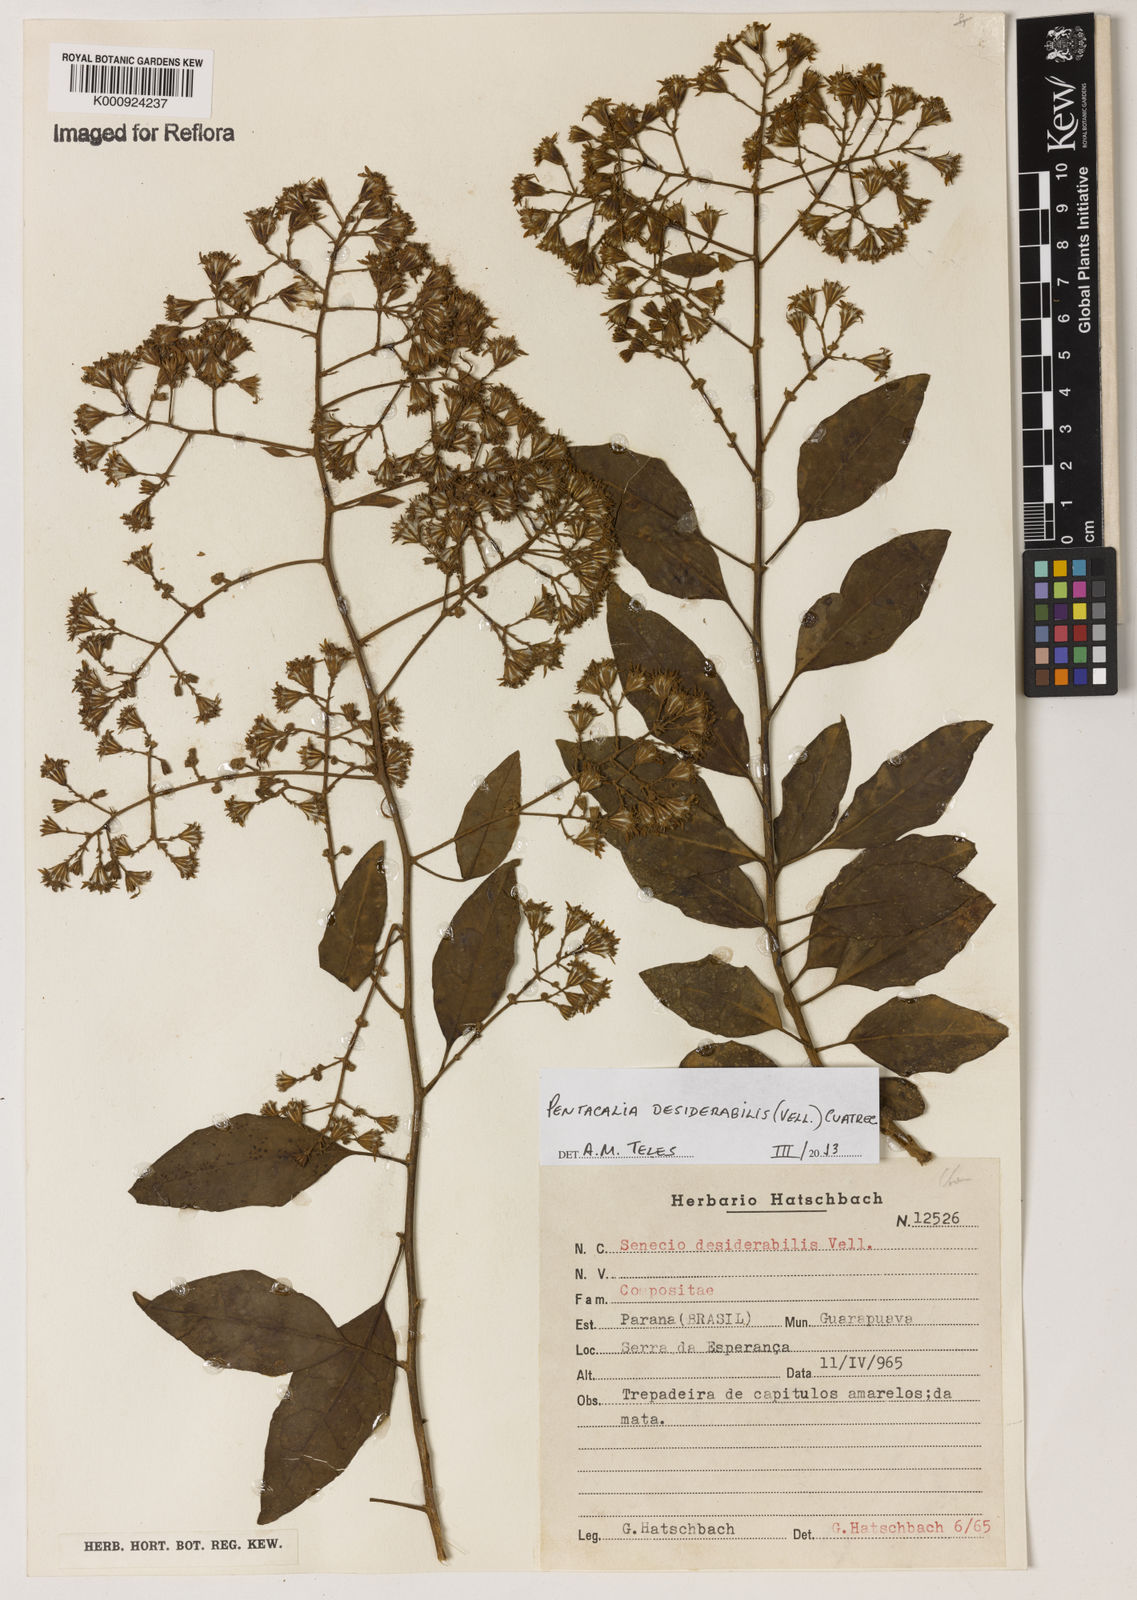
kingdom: Plantae
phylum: Tracheophyta
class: Magnoliopsida
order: Asterales
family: Asteraceae
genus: Pentacalia
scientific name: Pentacalia desiderabilis
